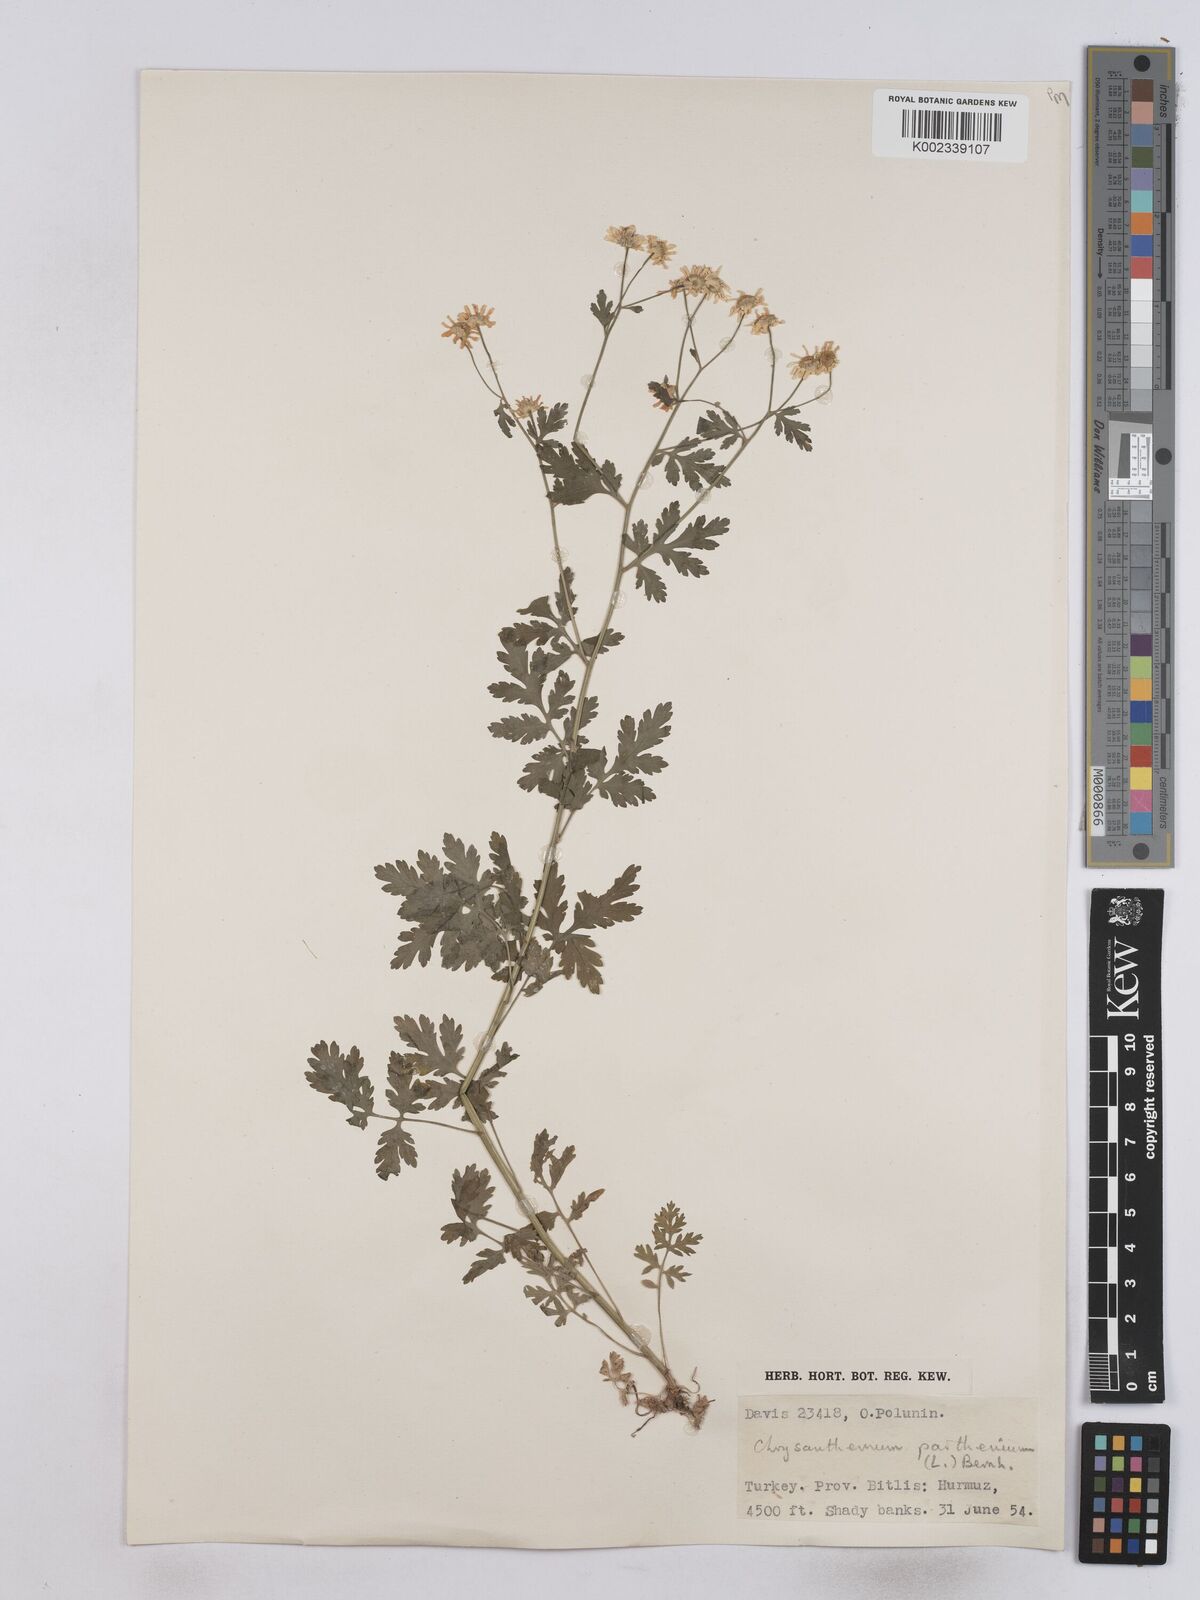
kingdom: Plantae
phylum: Tracheophyta
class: Magnoliopsida
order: Asterales
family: Asteraceae
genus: Tanacetum
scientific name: Tanacetum parthenium
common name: Feverfew
